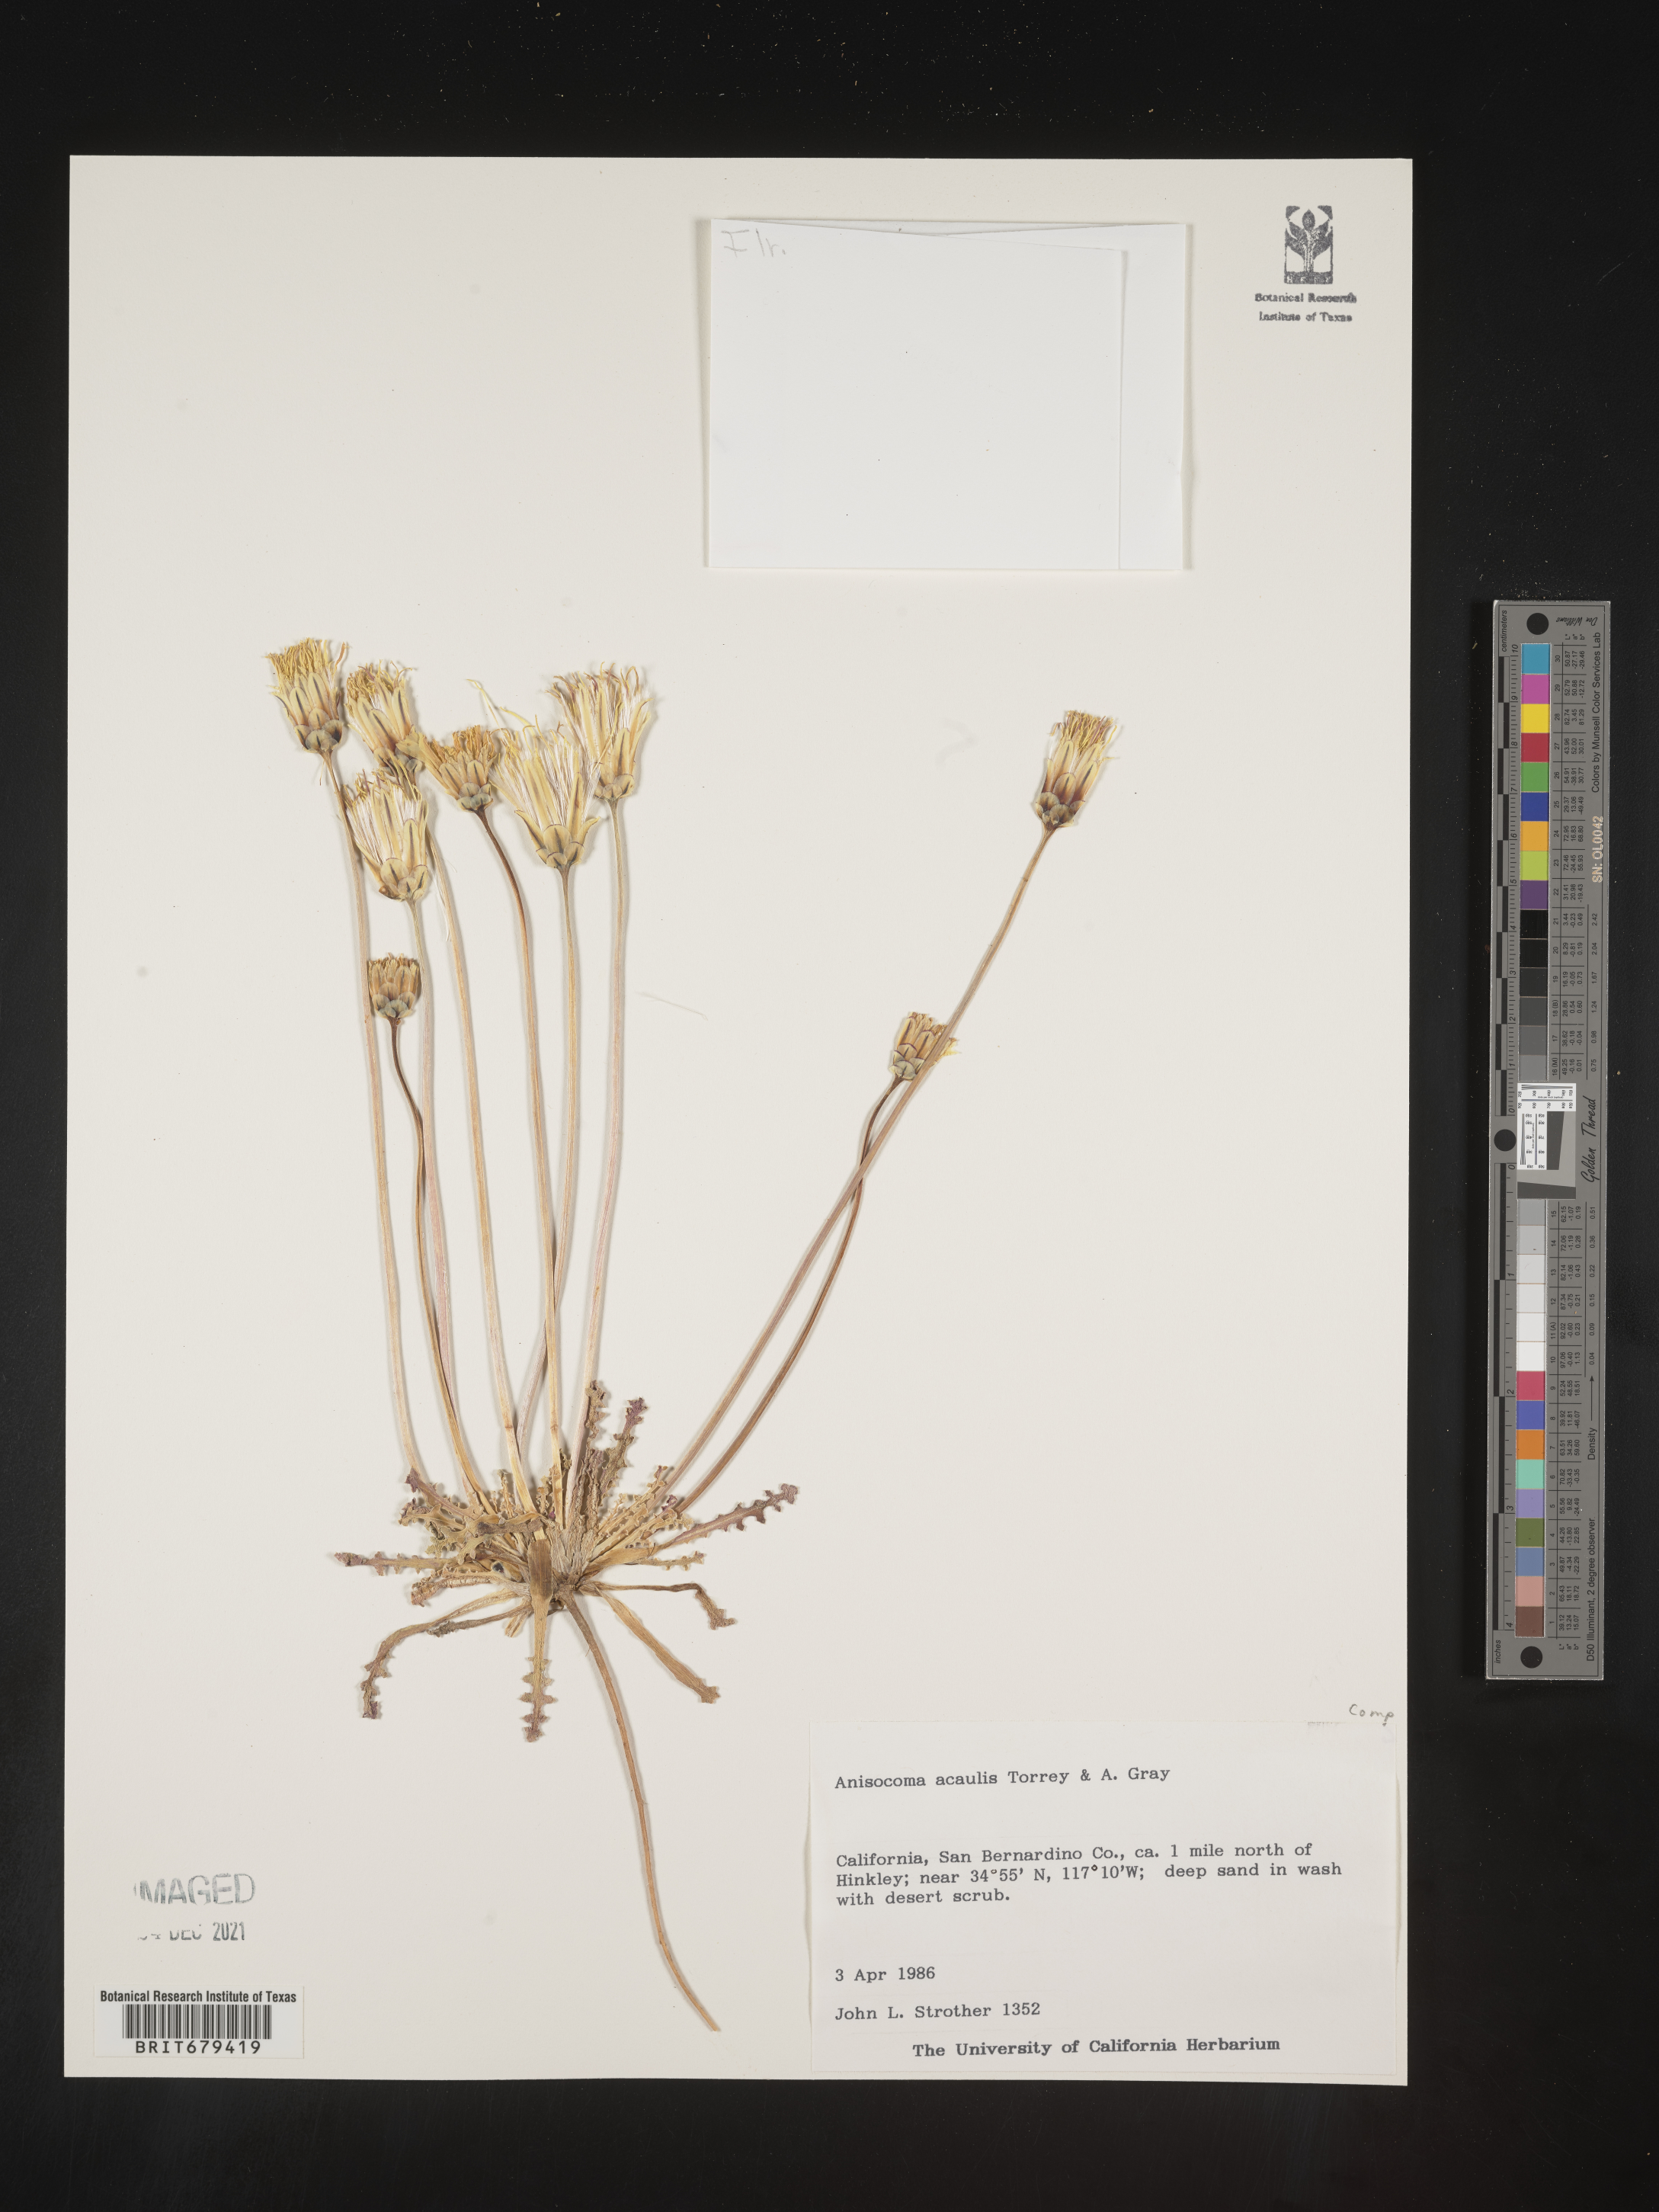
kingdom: Plantae
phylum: Tracheophyta
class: Magnoliopsida
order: Asterales
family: Asteraceae
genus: Anisocoma
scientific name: Anisocoma
